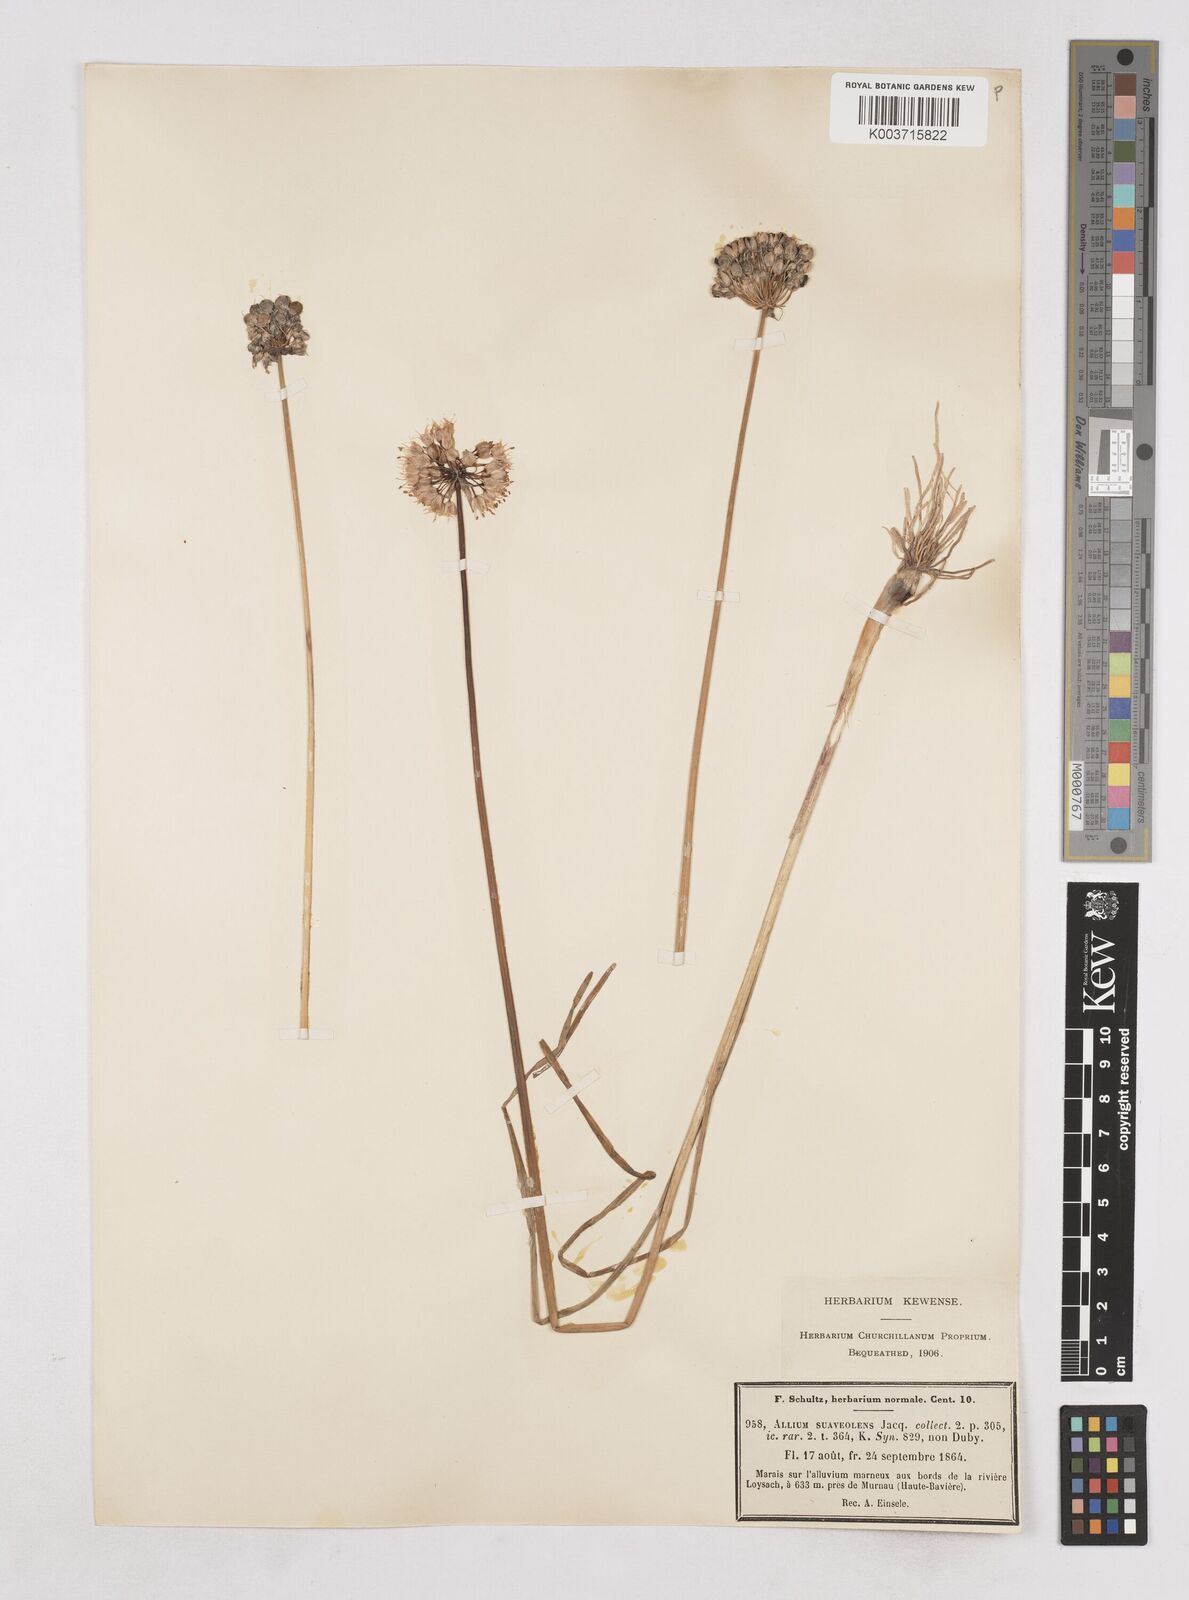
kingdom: Plantae
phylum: Tracheophyta
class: Liliopsida
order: Asparagales
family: Amaryllidaceae
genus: Allium
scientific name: Allium suaveolens
